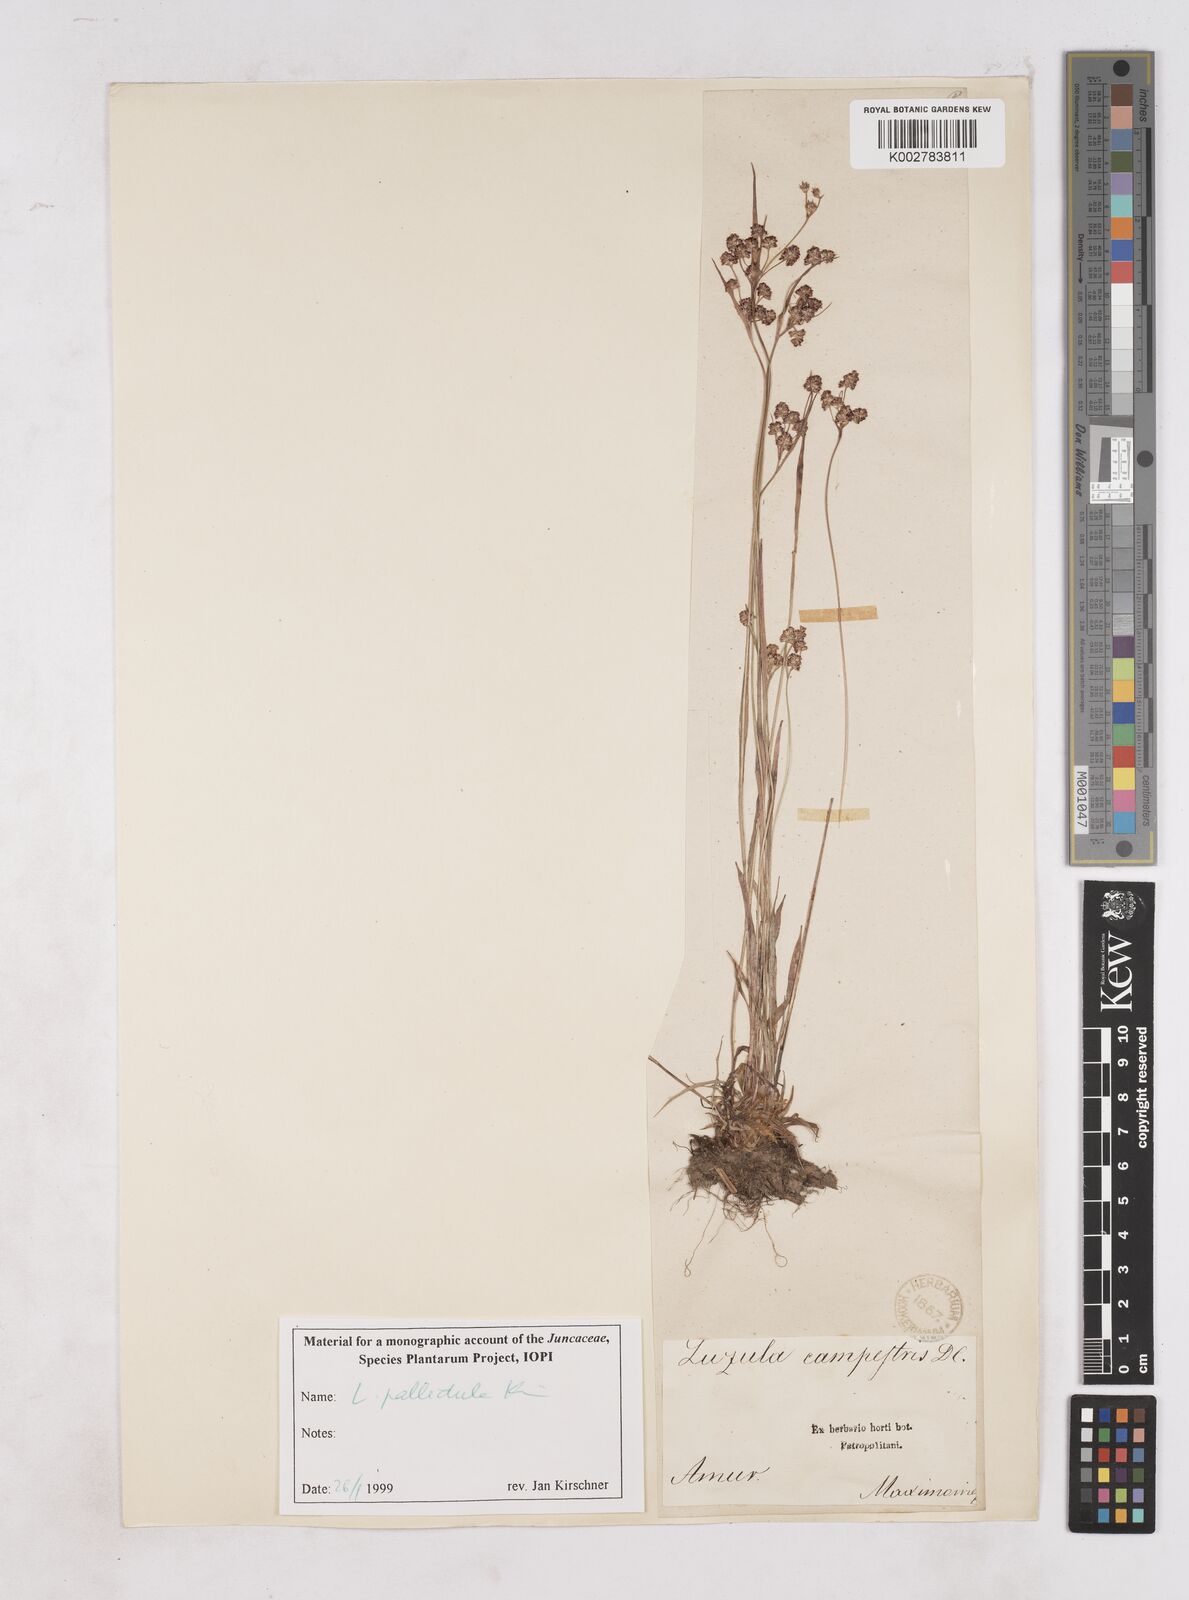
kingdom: Plantae
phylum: Tracheophyta
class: Liliopsida
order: Poales
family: Juncaceae
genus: Luzula
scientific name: Luzula campestris
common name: Field wood-rush
